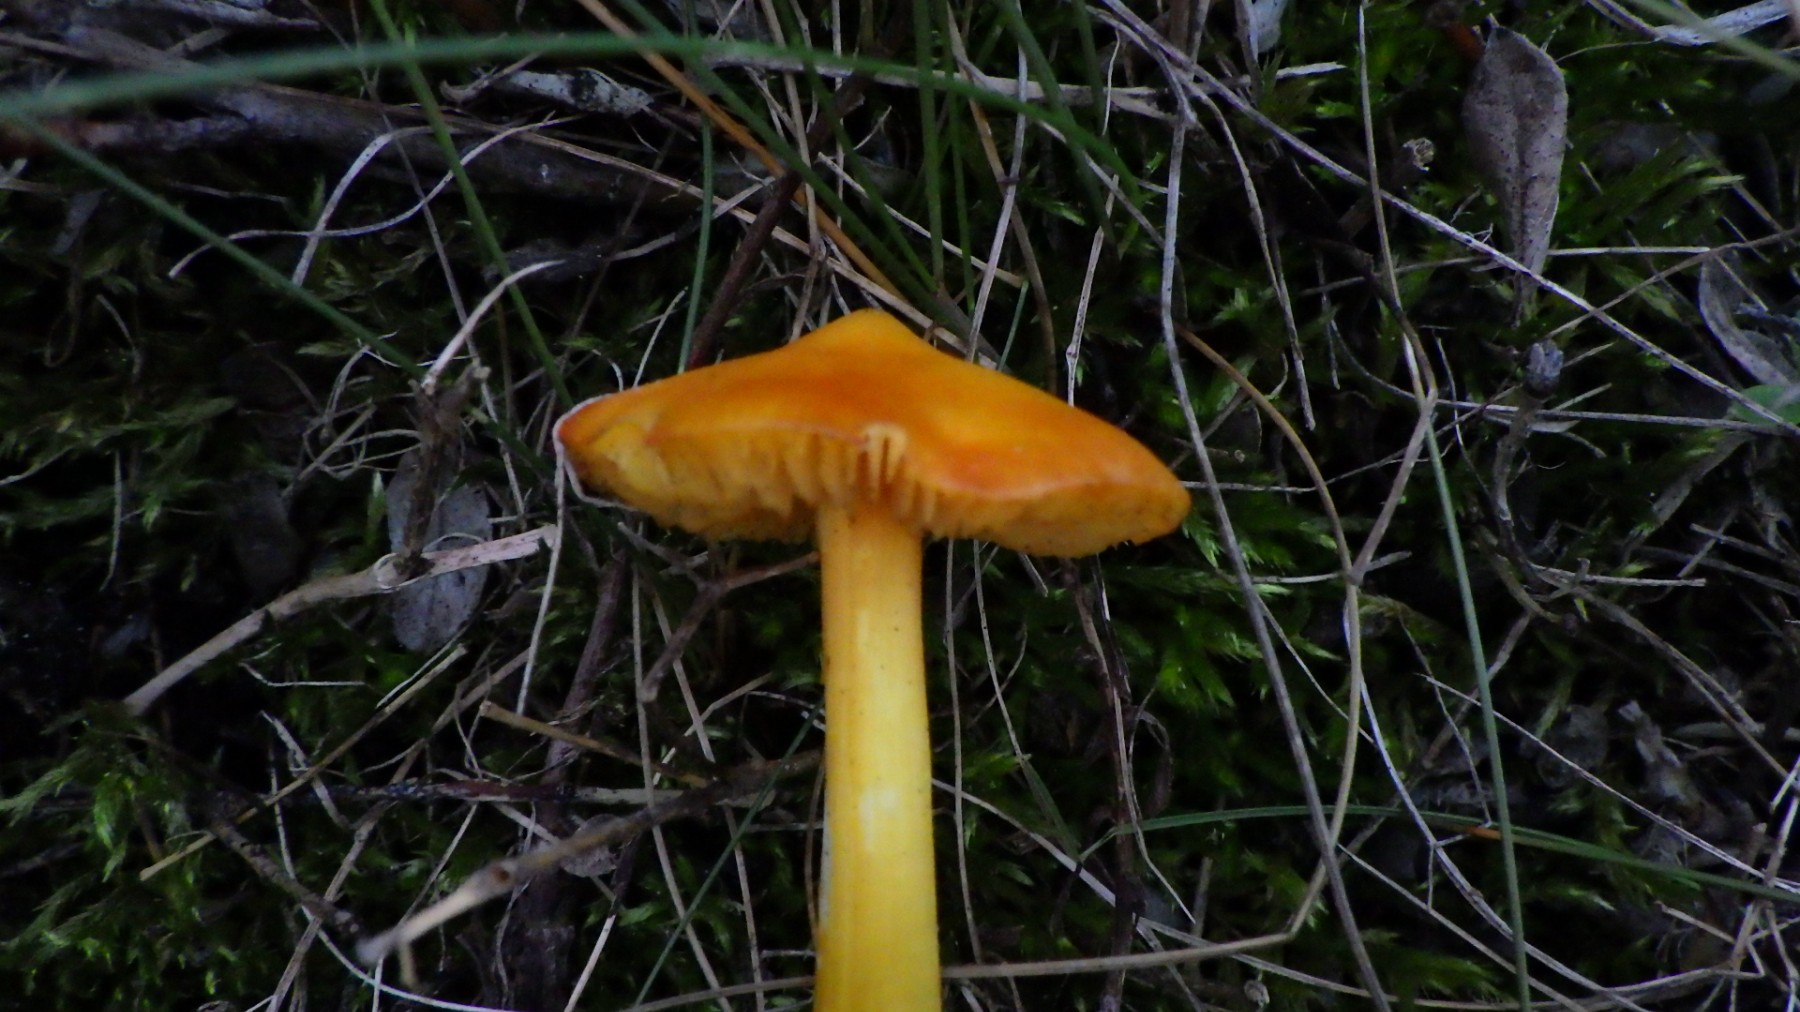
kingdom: Fungi
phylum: Basidiomycota
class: Agaricomycetes
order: Agaricales
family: Hygrophoraceae
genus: Hygrocybe
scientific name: Hygrocybe
